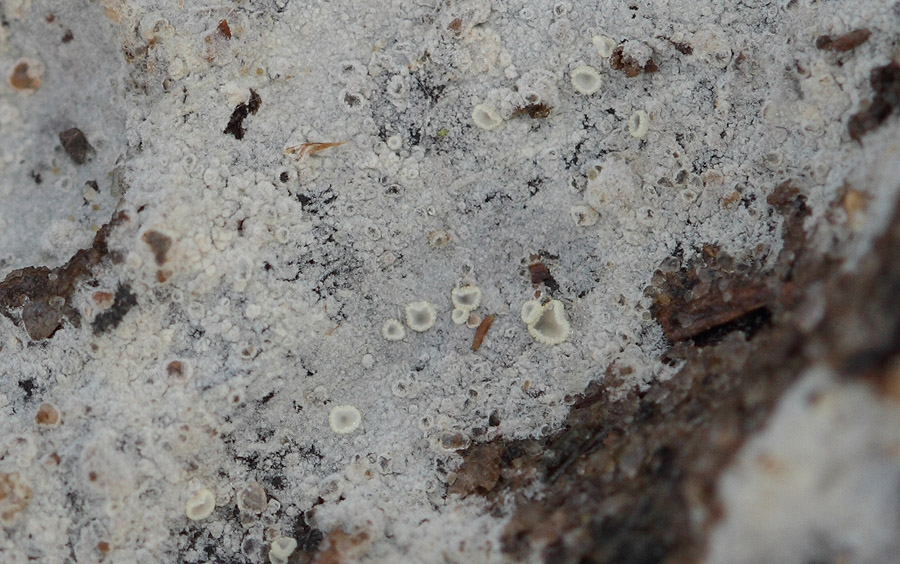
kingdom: Fungi
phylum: Basidiomycota
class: Agaricomycetes
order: Trechisporales
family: Sistotremataceae
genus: Trechispora
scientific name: Trechispora cohaerens
